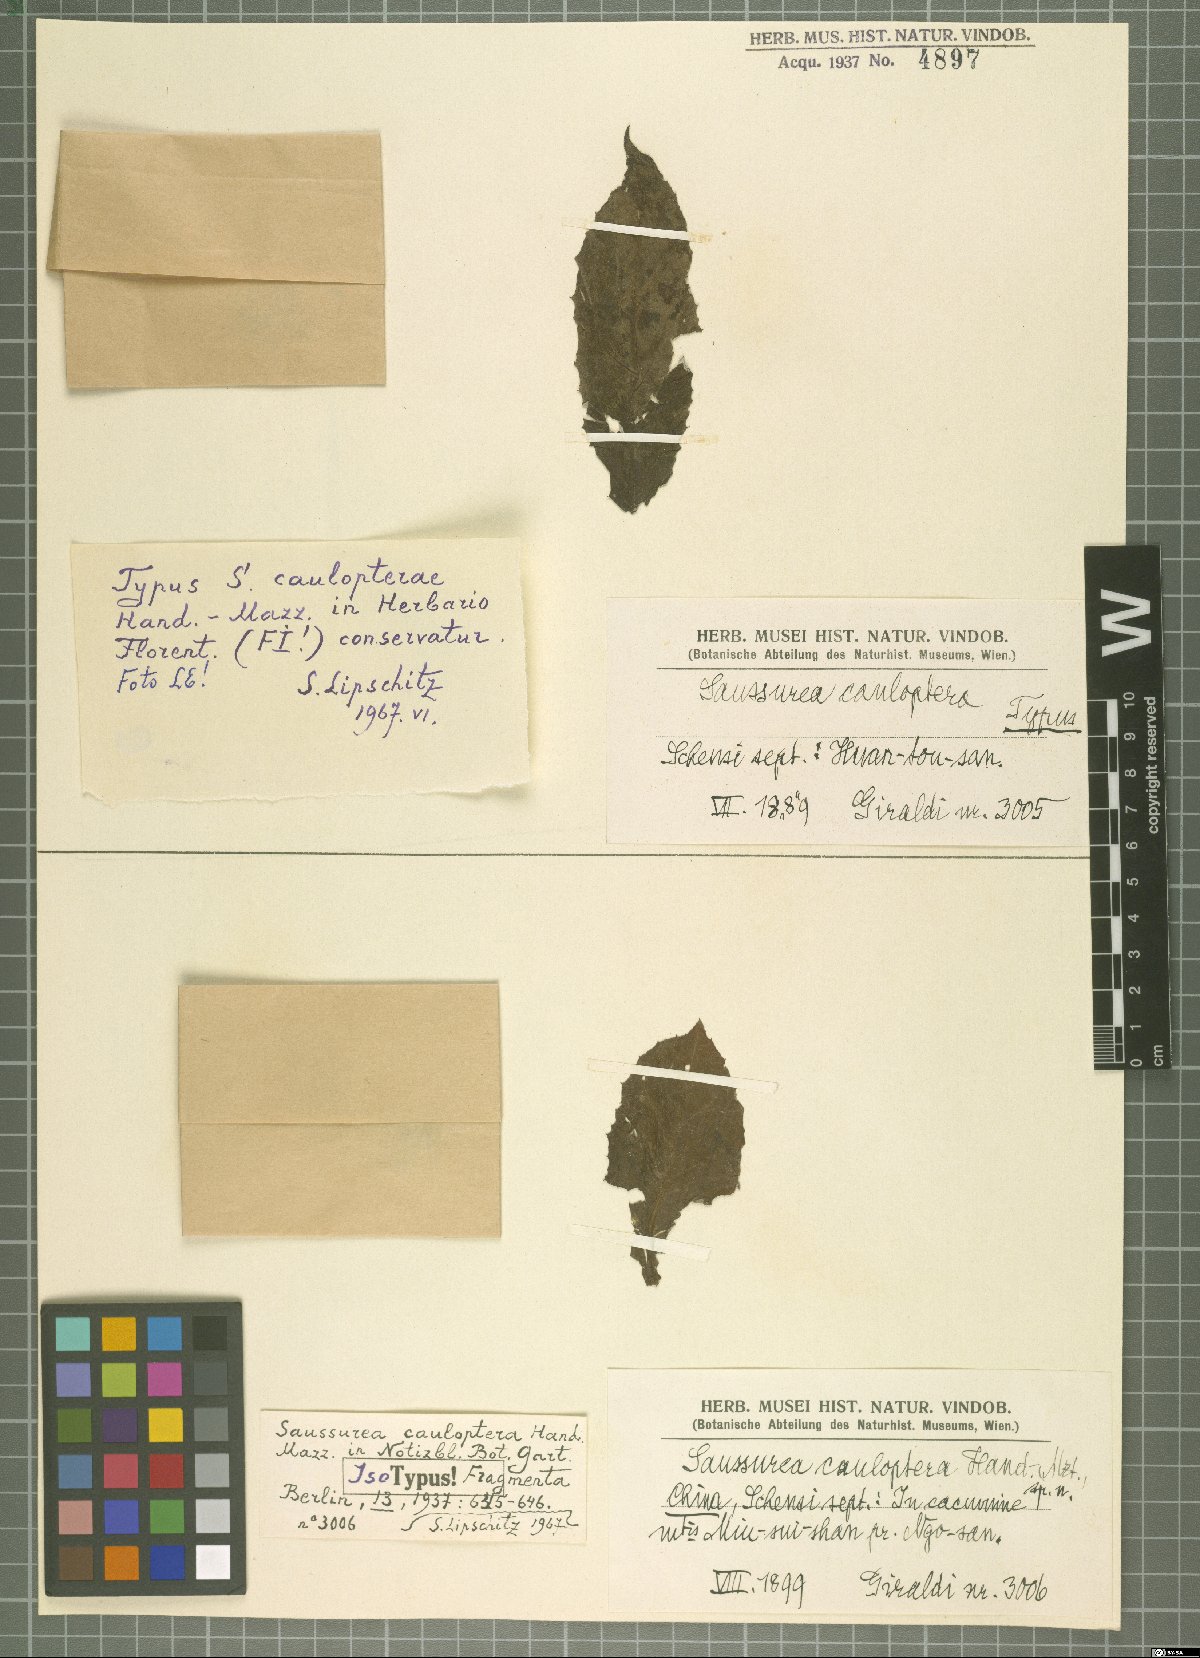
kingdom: Plantae
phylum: Tracheophyta
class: Magnoliopsida
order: Asterales
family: Asteraceae
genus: Saussurea
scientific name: Saussurea cauloptera
